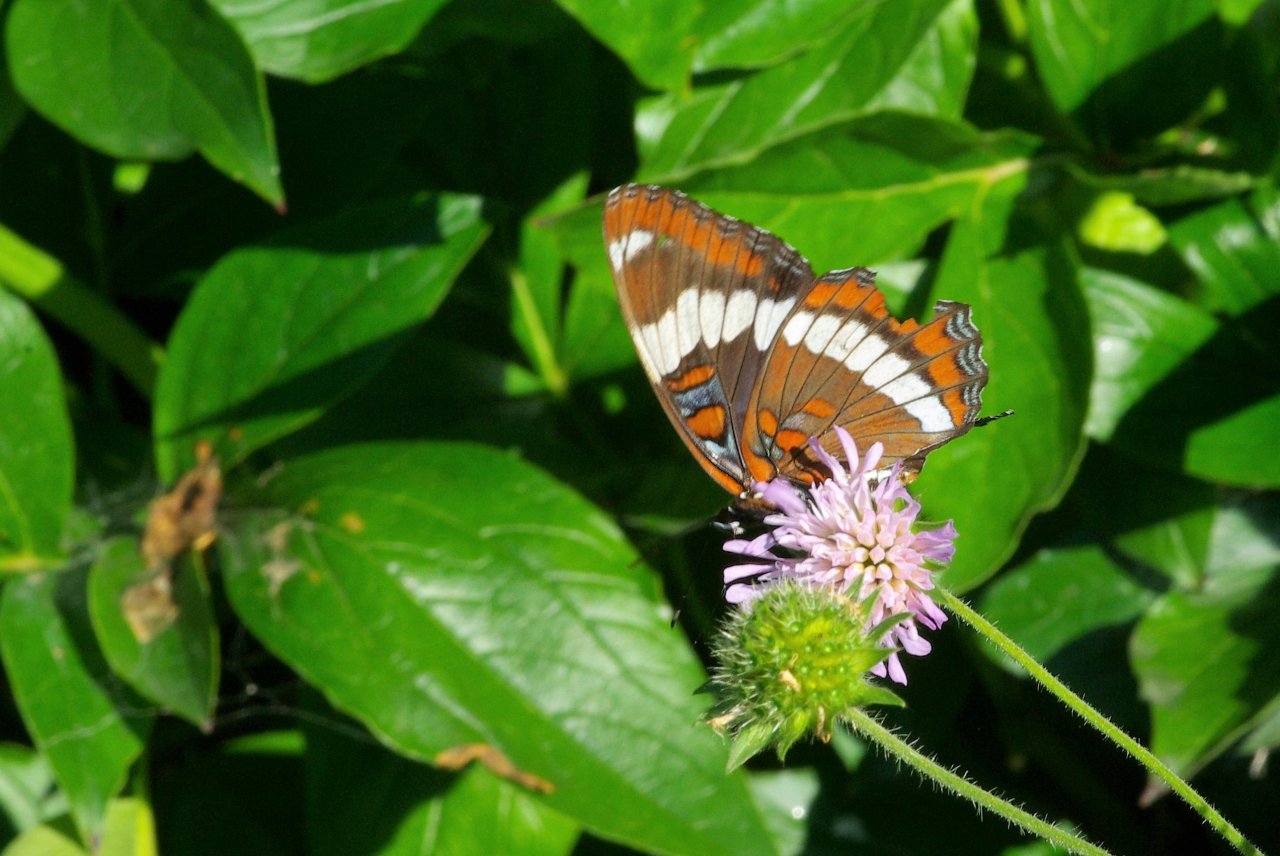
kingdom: Animalia
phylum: Arthropoda
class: Insecta
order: Lepidoptera
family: Nymphalidae
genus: Limenitis
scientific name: Limenitis arthemis
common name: Red-spotted Admiral
